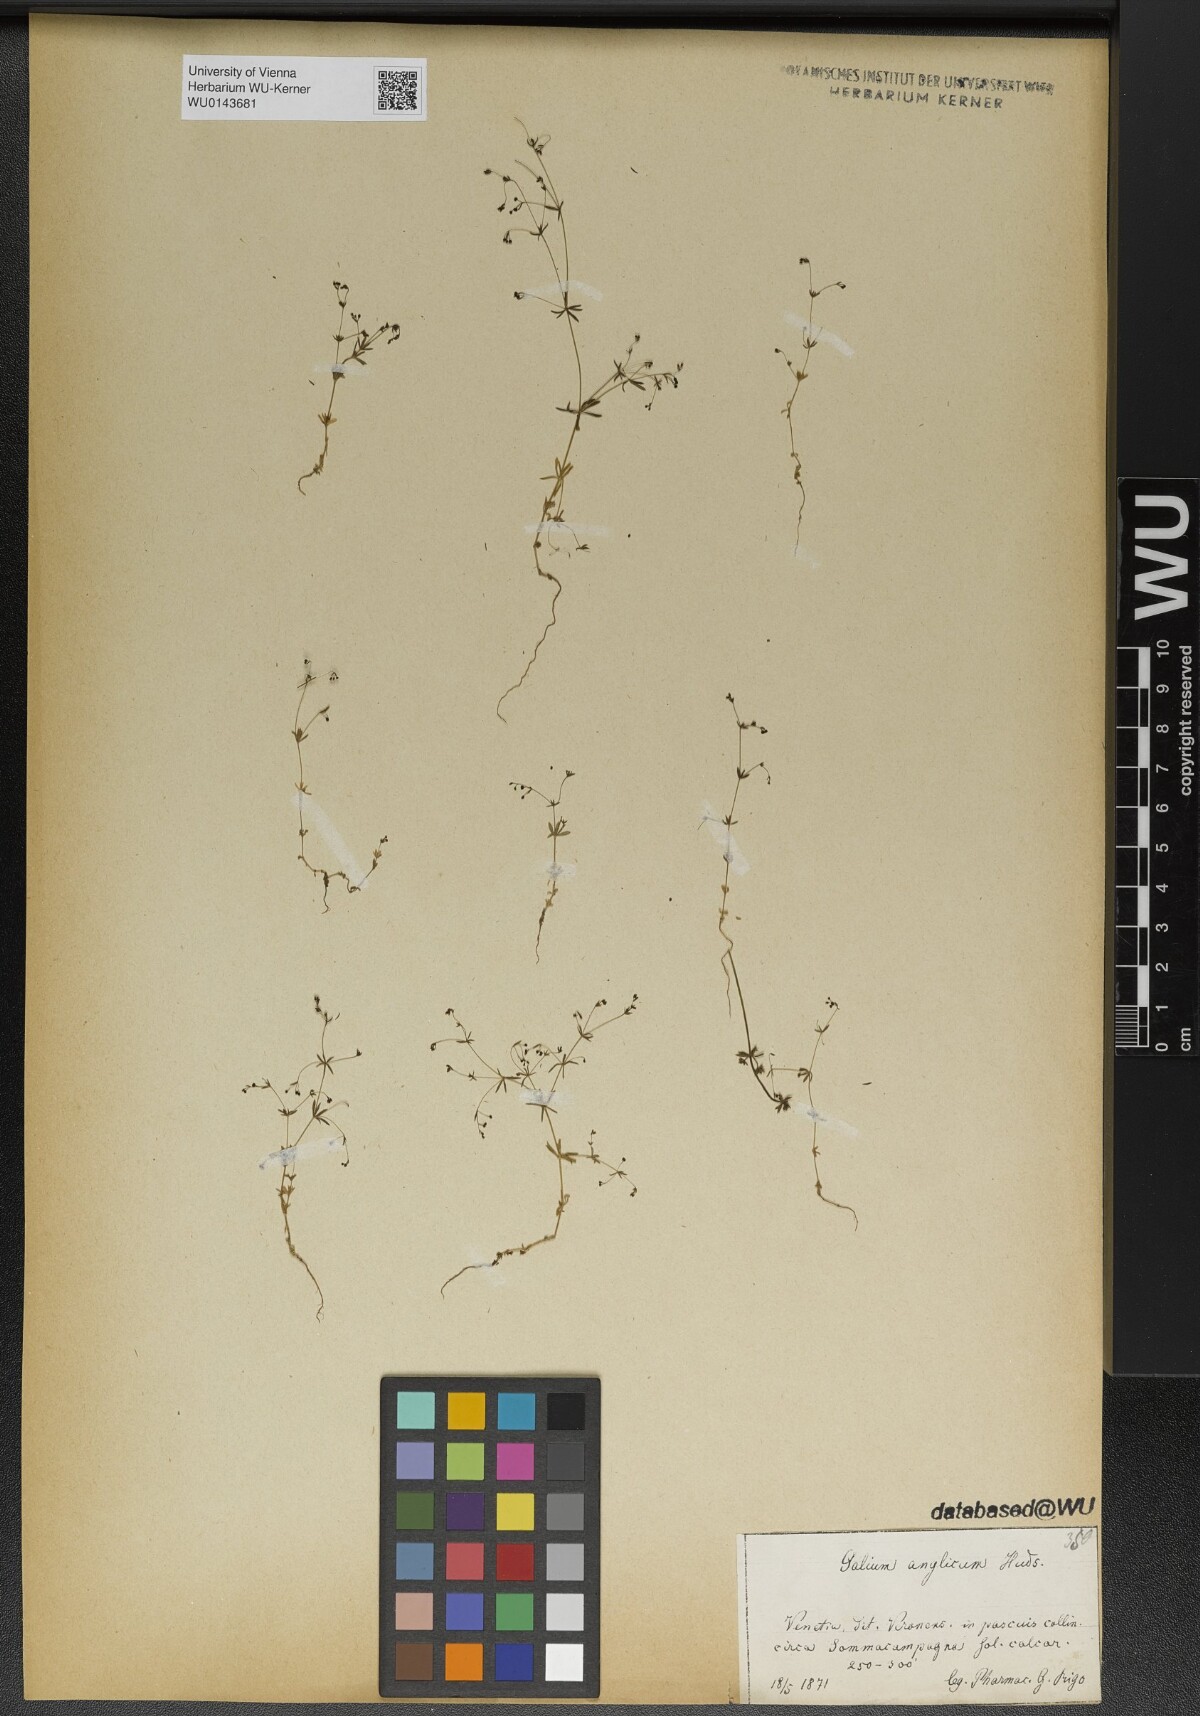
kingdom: Plantae
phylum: Tracheophyta
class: Magnoliopsida
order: Gentianales
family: Rubiaceae
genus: Galium
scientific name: Galium parisiense
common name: Wall bedstraw
